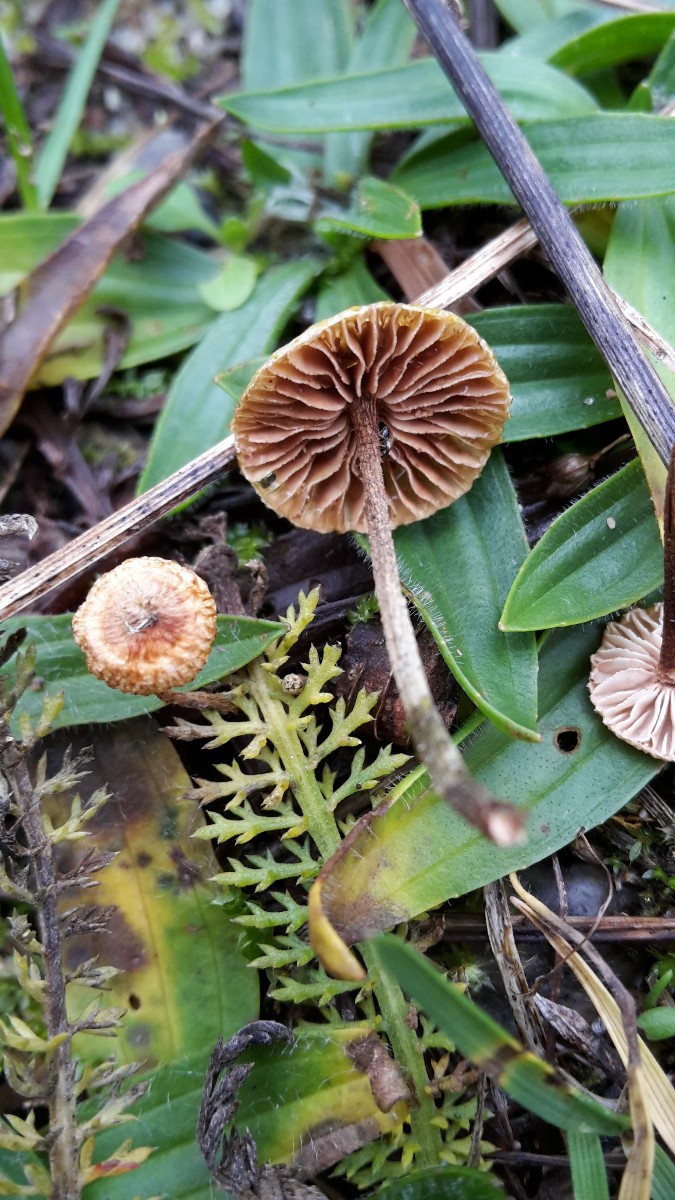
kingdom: Fungi
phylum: Basidiomycota
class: Agaricomycetes
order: Agaricales
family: Marasmiaceae
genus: Crinipellis
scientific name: Crinipellis scabella
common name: børstefod
